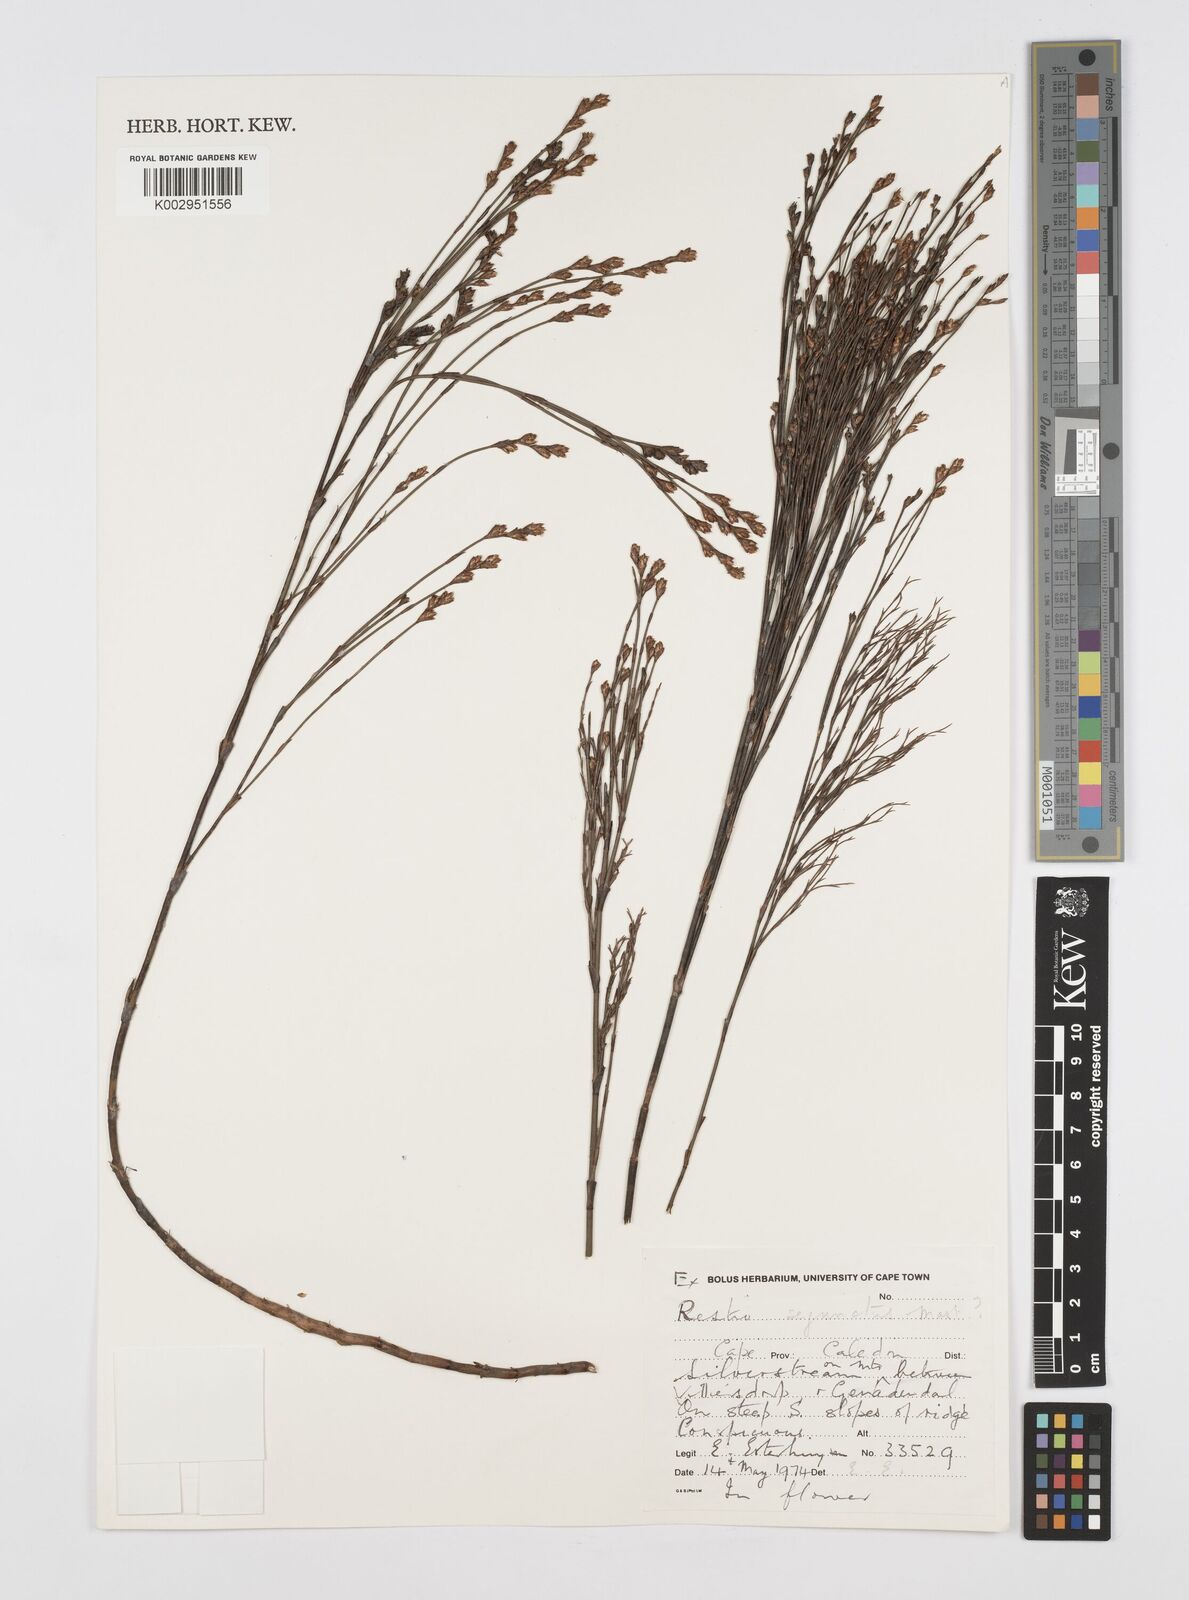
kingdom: Plantae
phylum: Tracheophyta
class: Liliopsida
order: Poales
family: Restionaceae
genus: Restio
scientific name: Restio sejunctus
